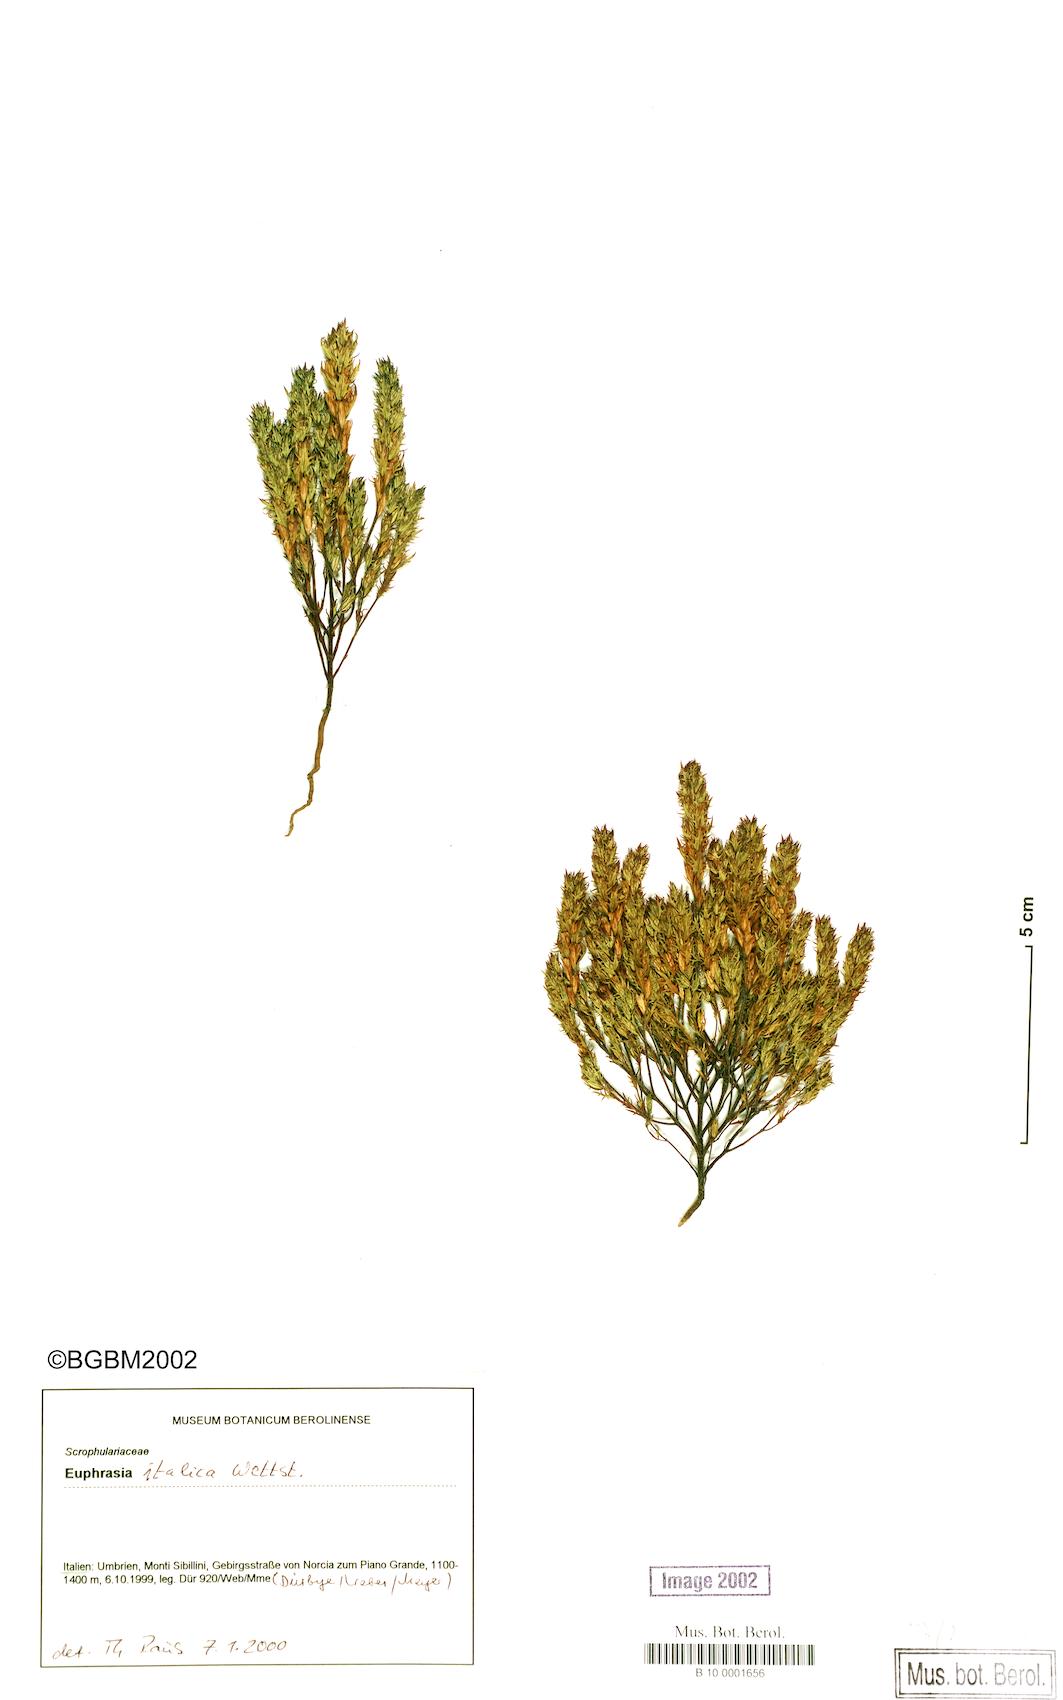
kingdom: Plantae
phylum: Tracheophyta
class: Magnoliopsida
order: Lamiales
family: Orobanchaceae
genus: Euphrasia
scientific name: Euphrasia portae
